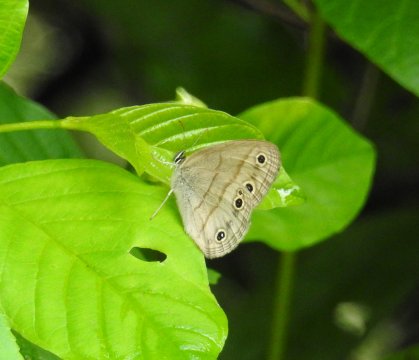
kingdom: Animalia
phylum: Arthropoda
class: Insecta
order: Lepidoptera
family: Nymphalidae
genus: Euptychia
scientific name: Euptychia cymela
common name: Little Wood Satyr
